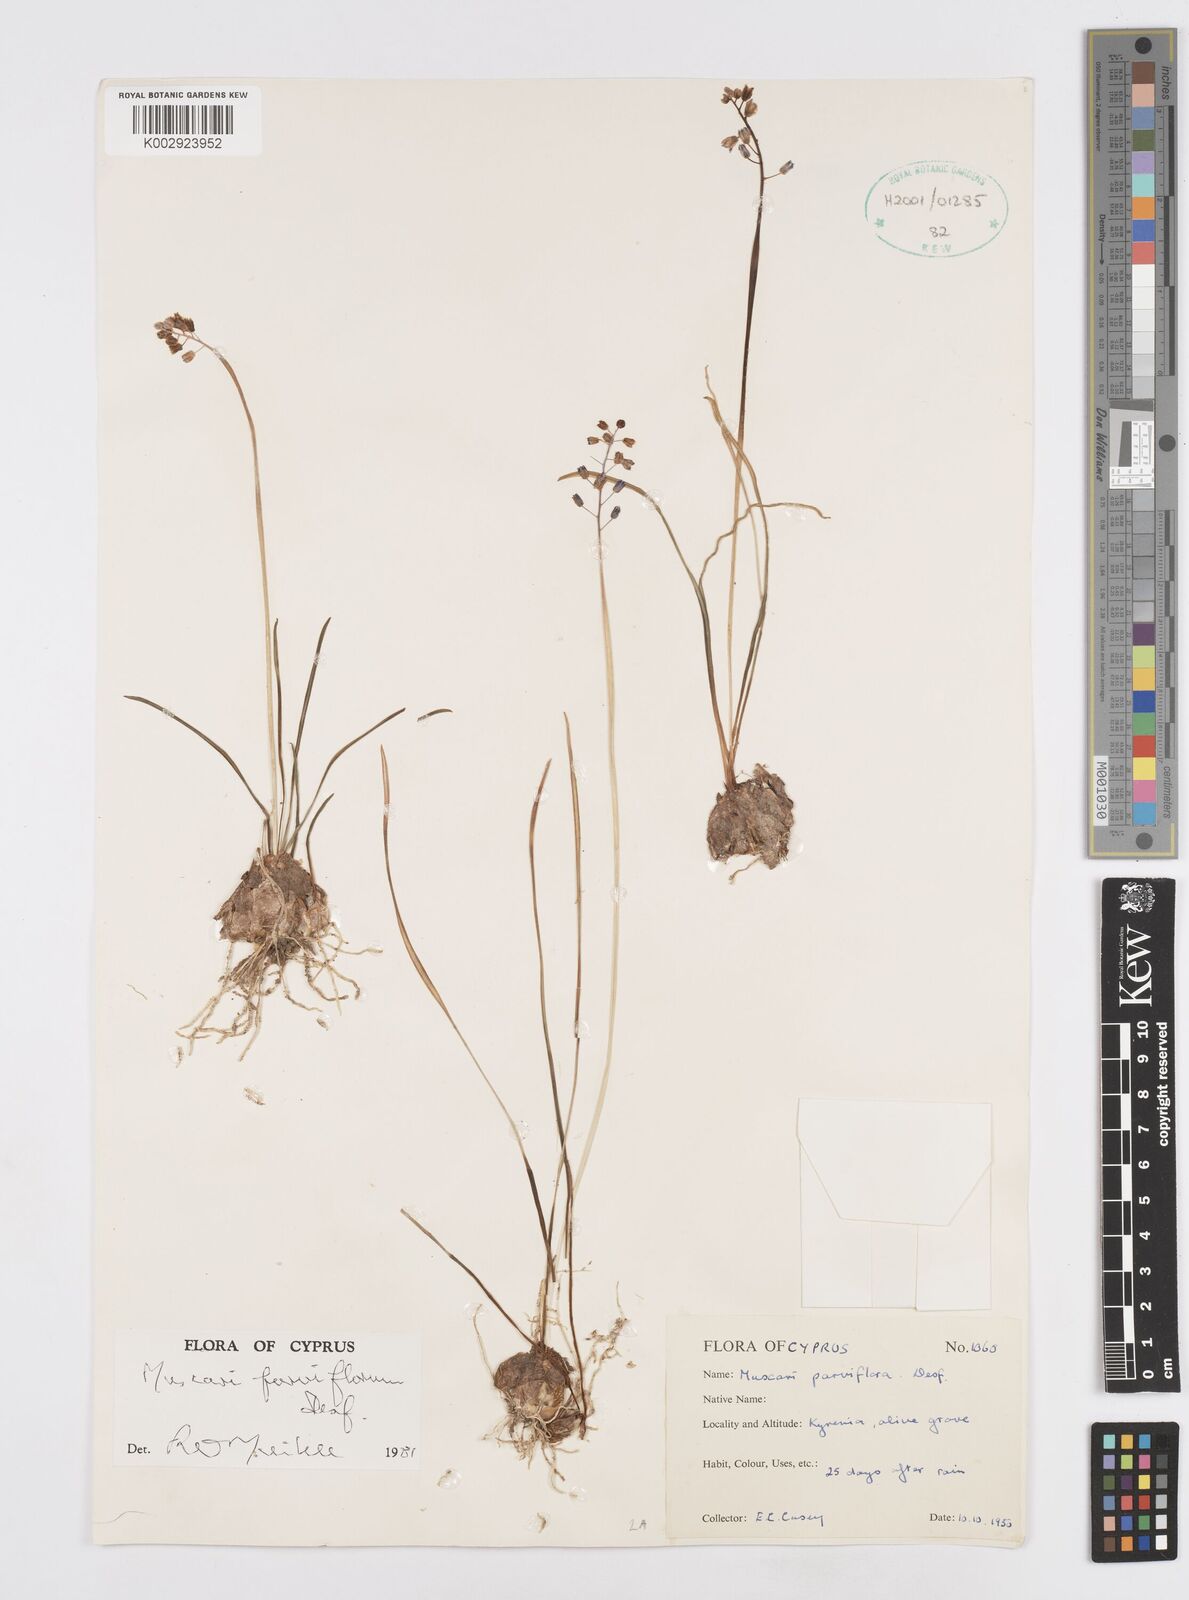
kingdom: Plantae
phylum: Tracheophyta
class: Liliopsida
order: Asparagales
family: Asparagaceae
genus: Muscari
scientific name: Muscari parviflorum
